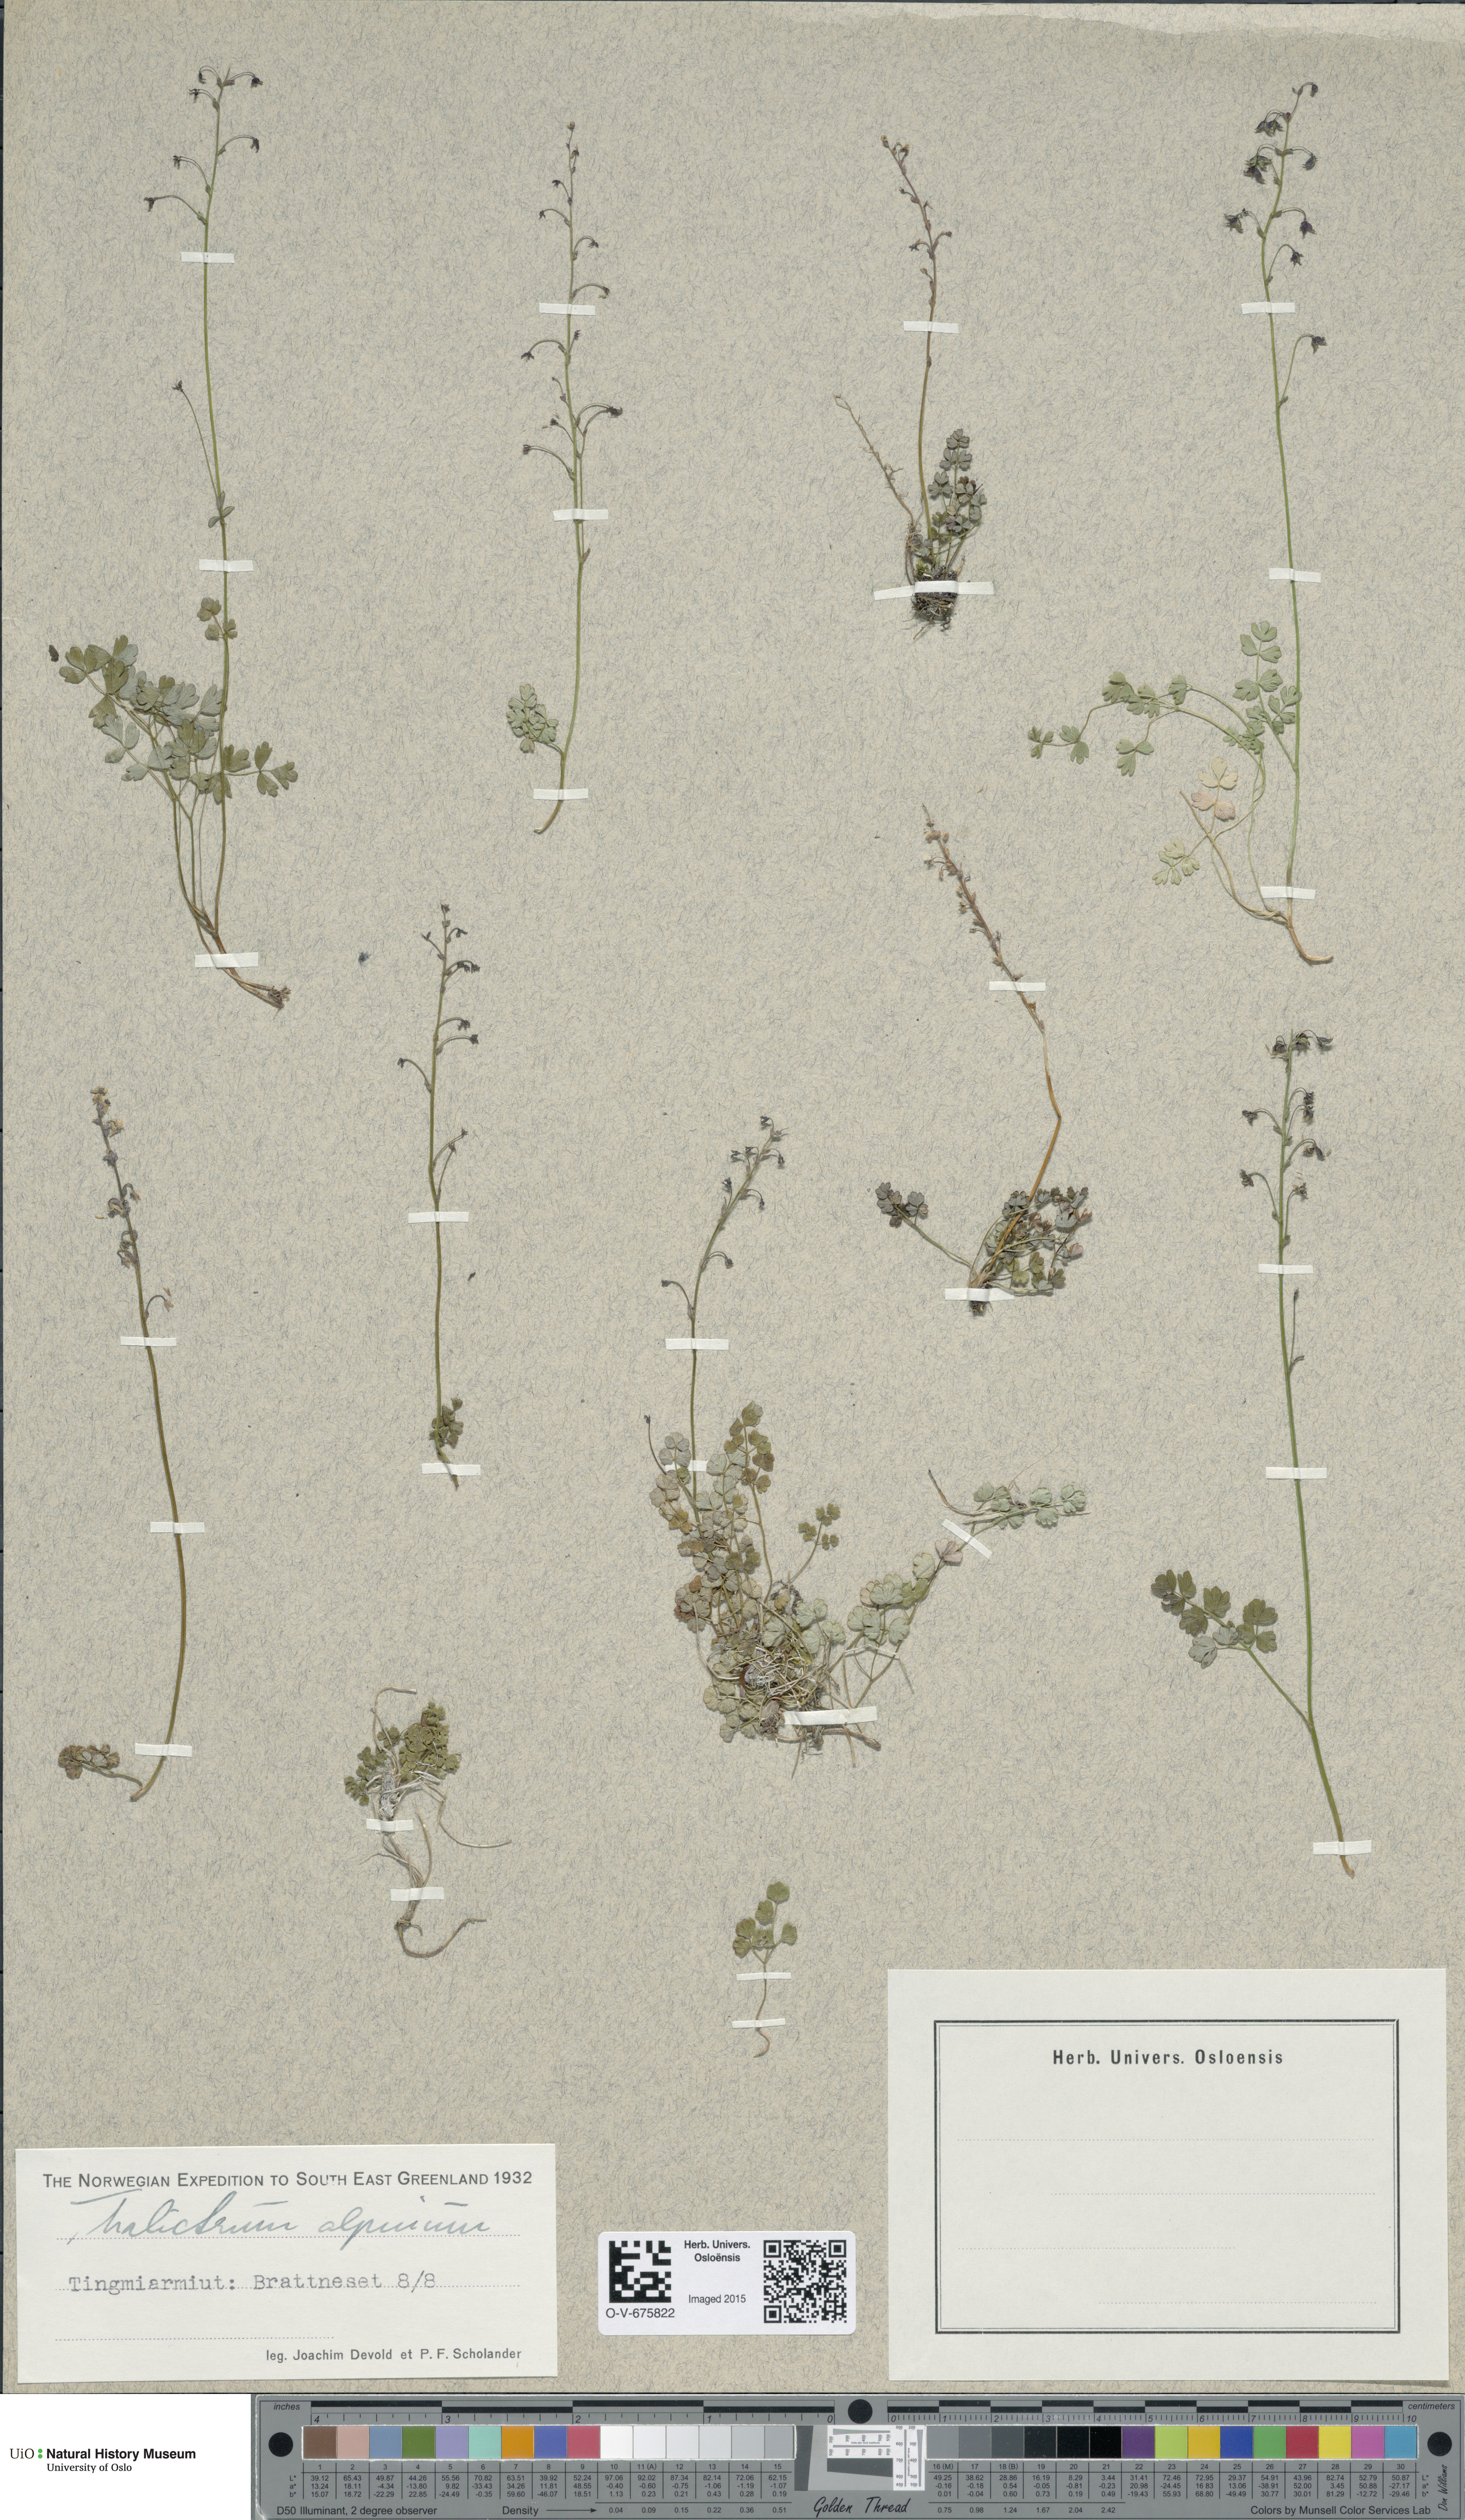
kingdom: Plantae
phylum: Tracheophyta
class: Magnoliopsida
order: Ranunculales
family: Ranunculaceae
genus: Thalictrum
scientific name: Thalictrum alpinum
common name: Alpine meadow-rue
